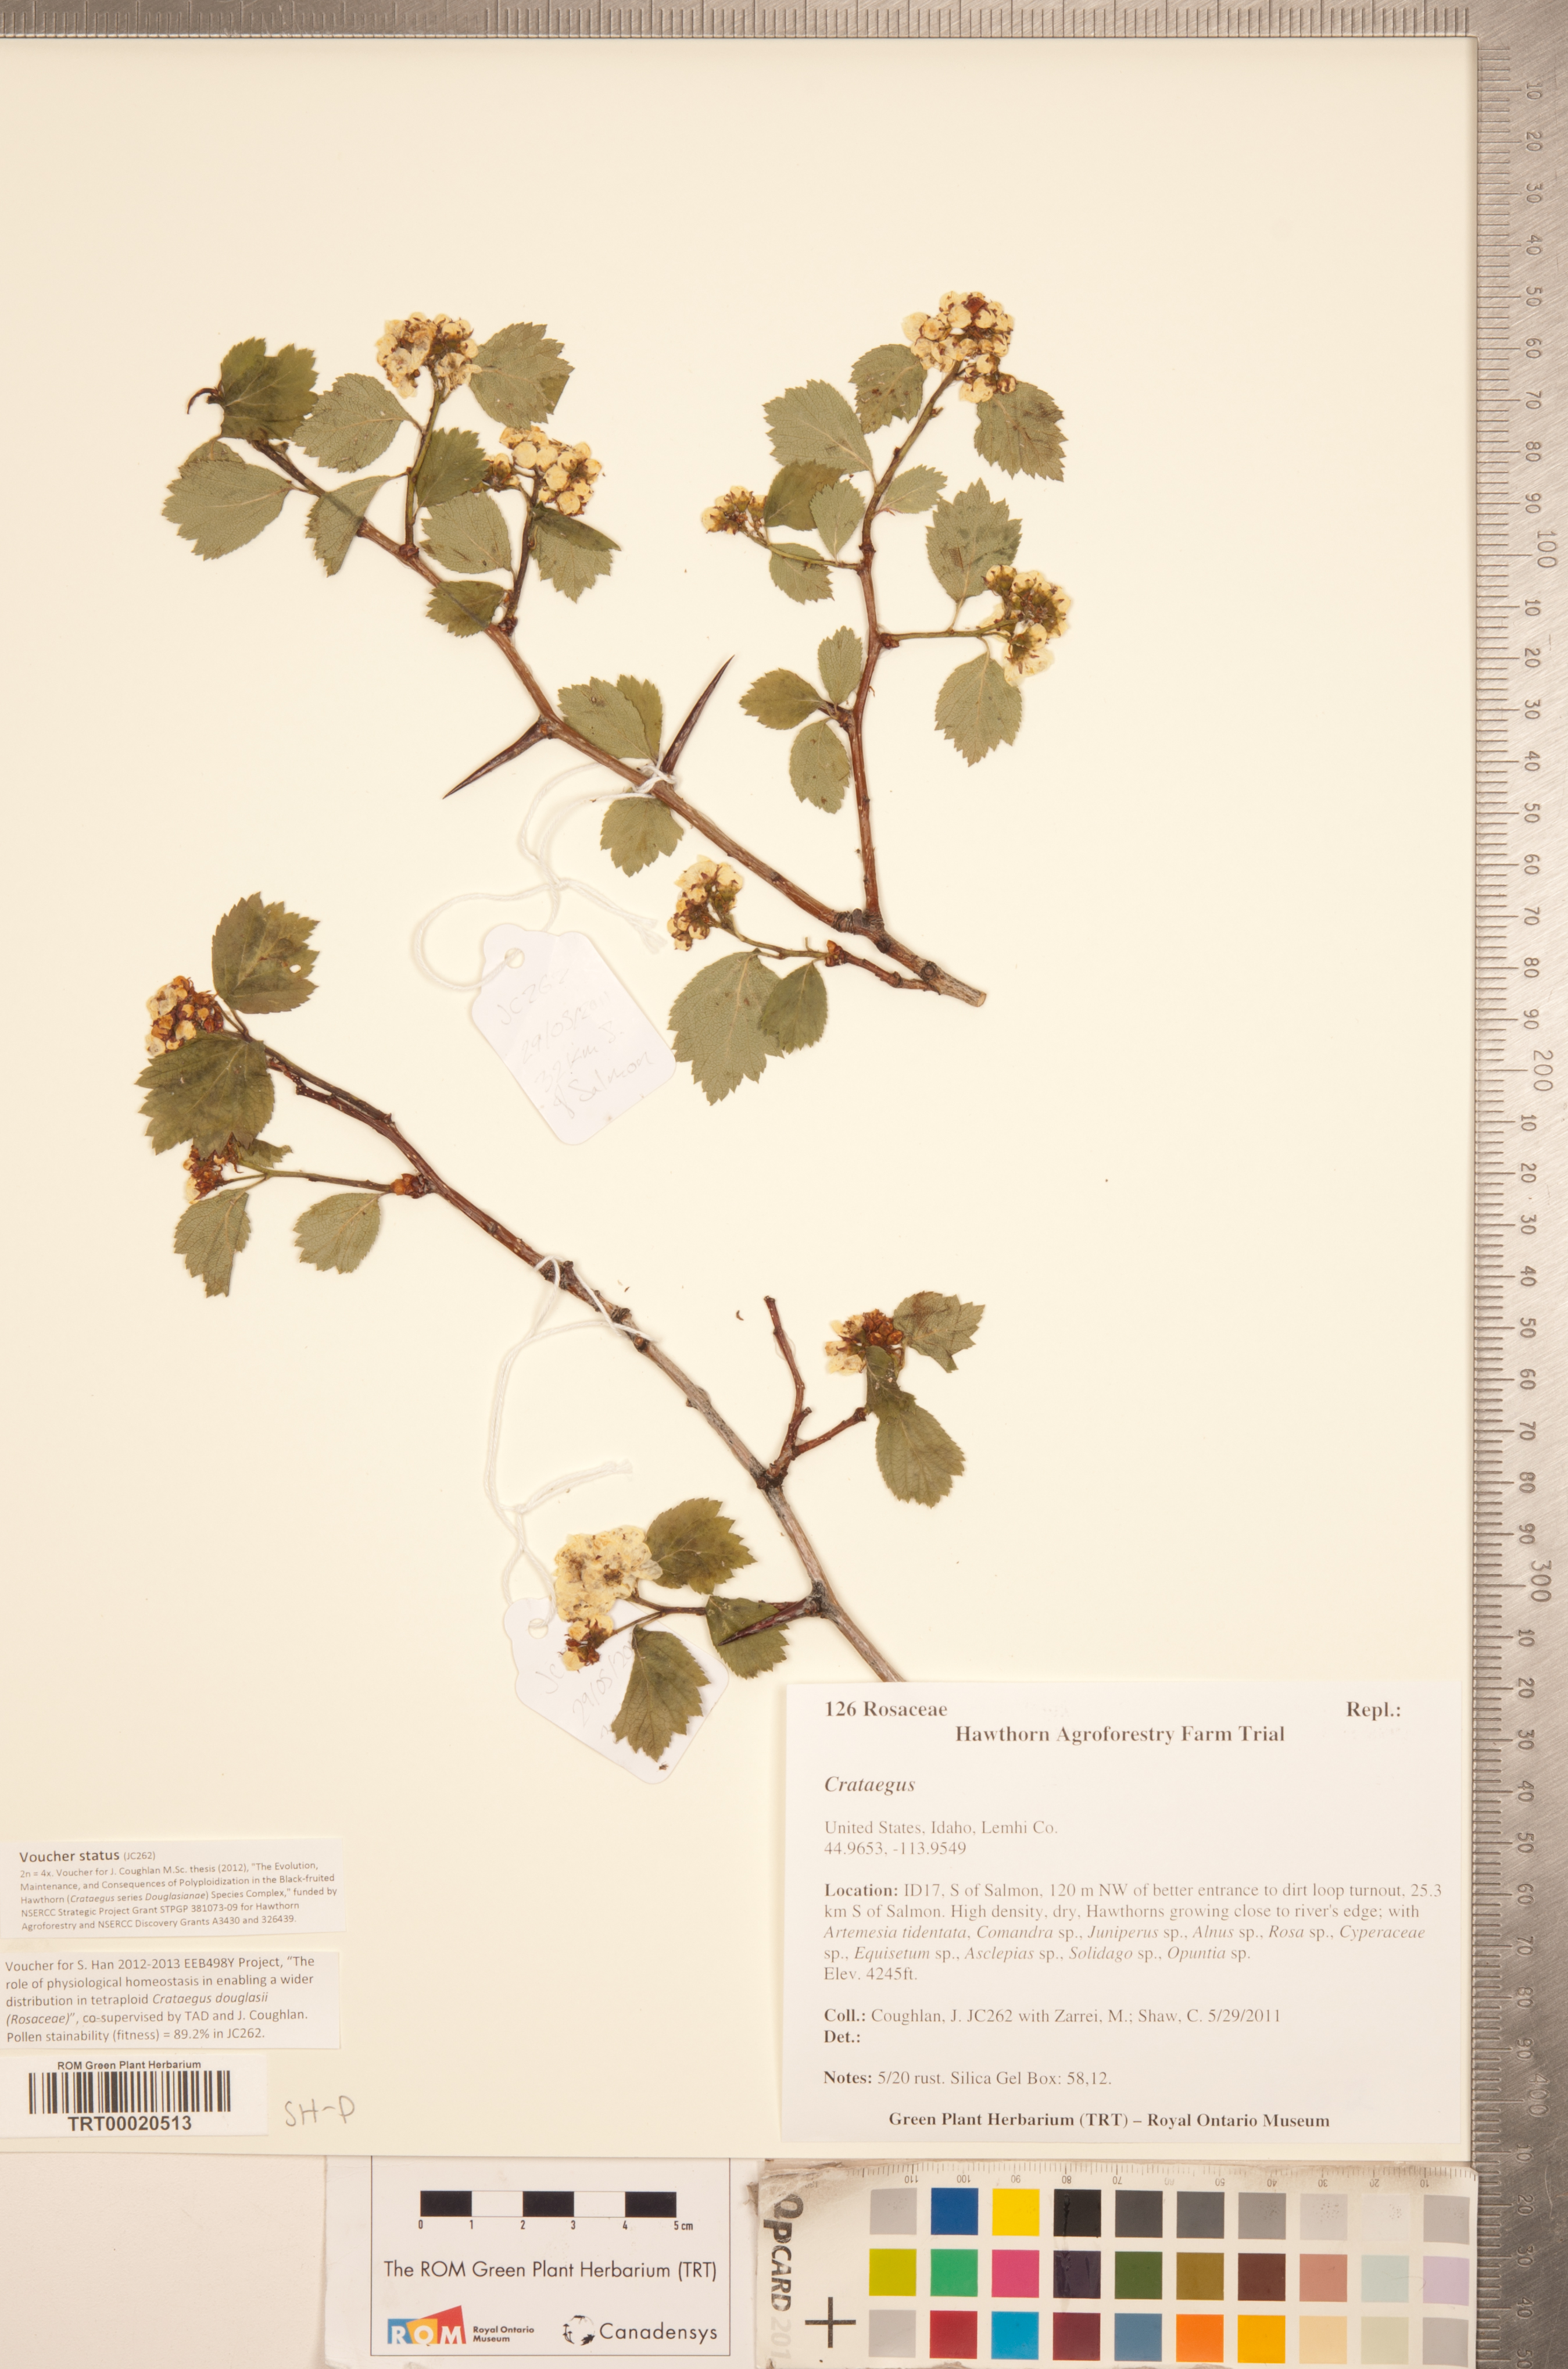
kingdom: Plantae
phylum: Tracheophyta
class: Magnoliopsida
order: Rosales
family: Rosaceae
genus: Crataegus
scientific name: Crataegus
